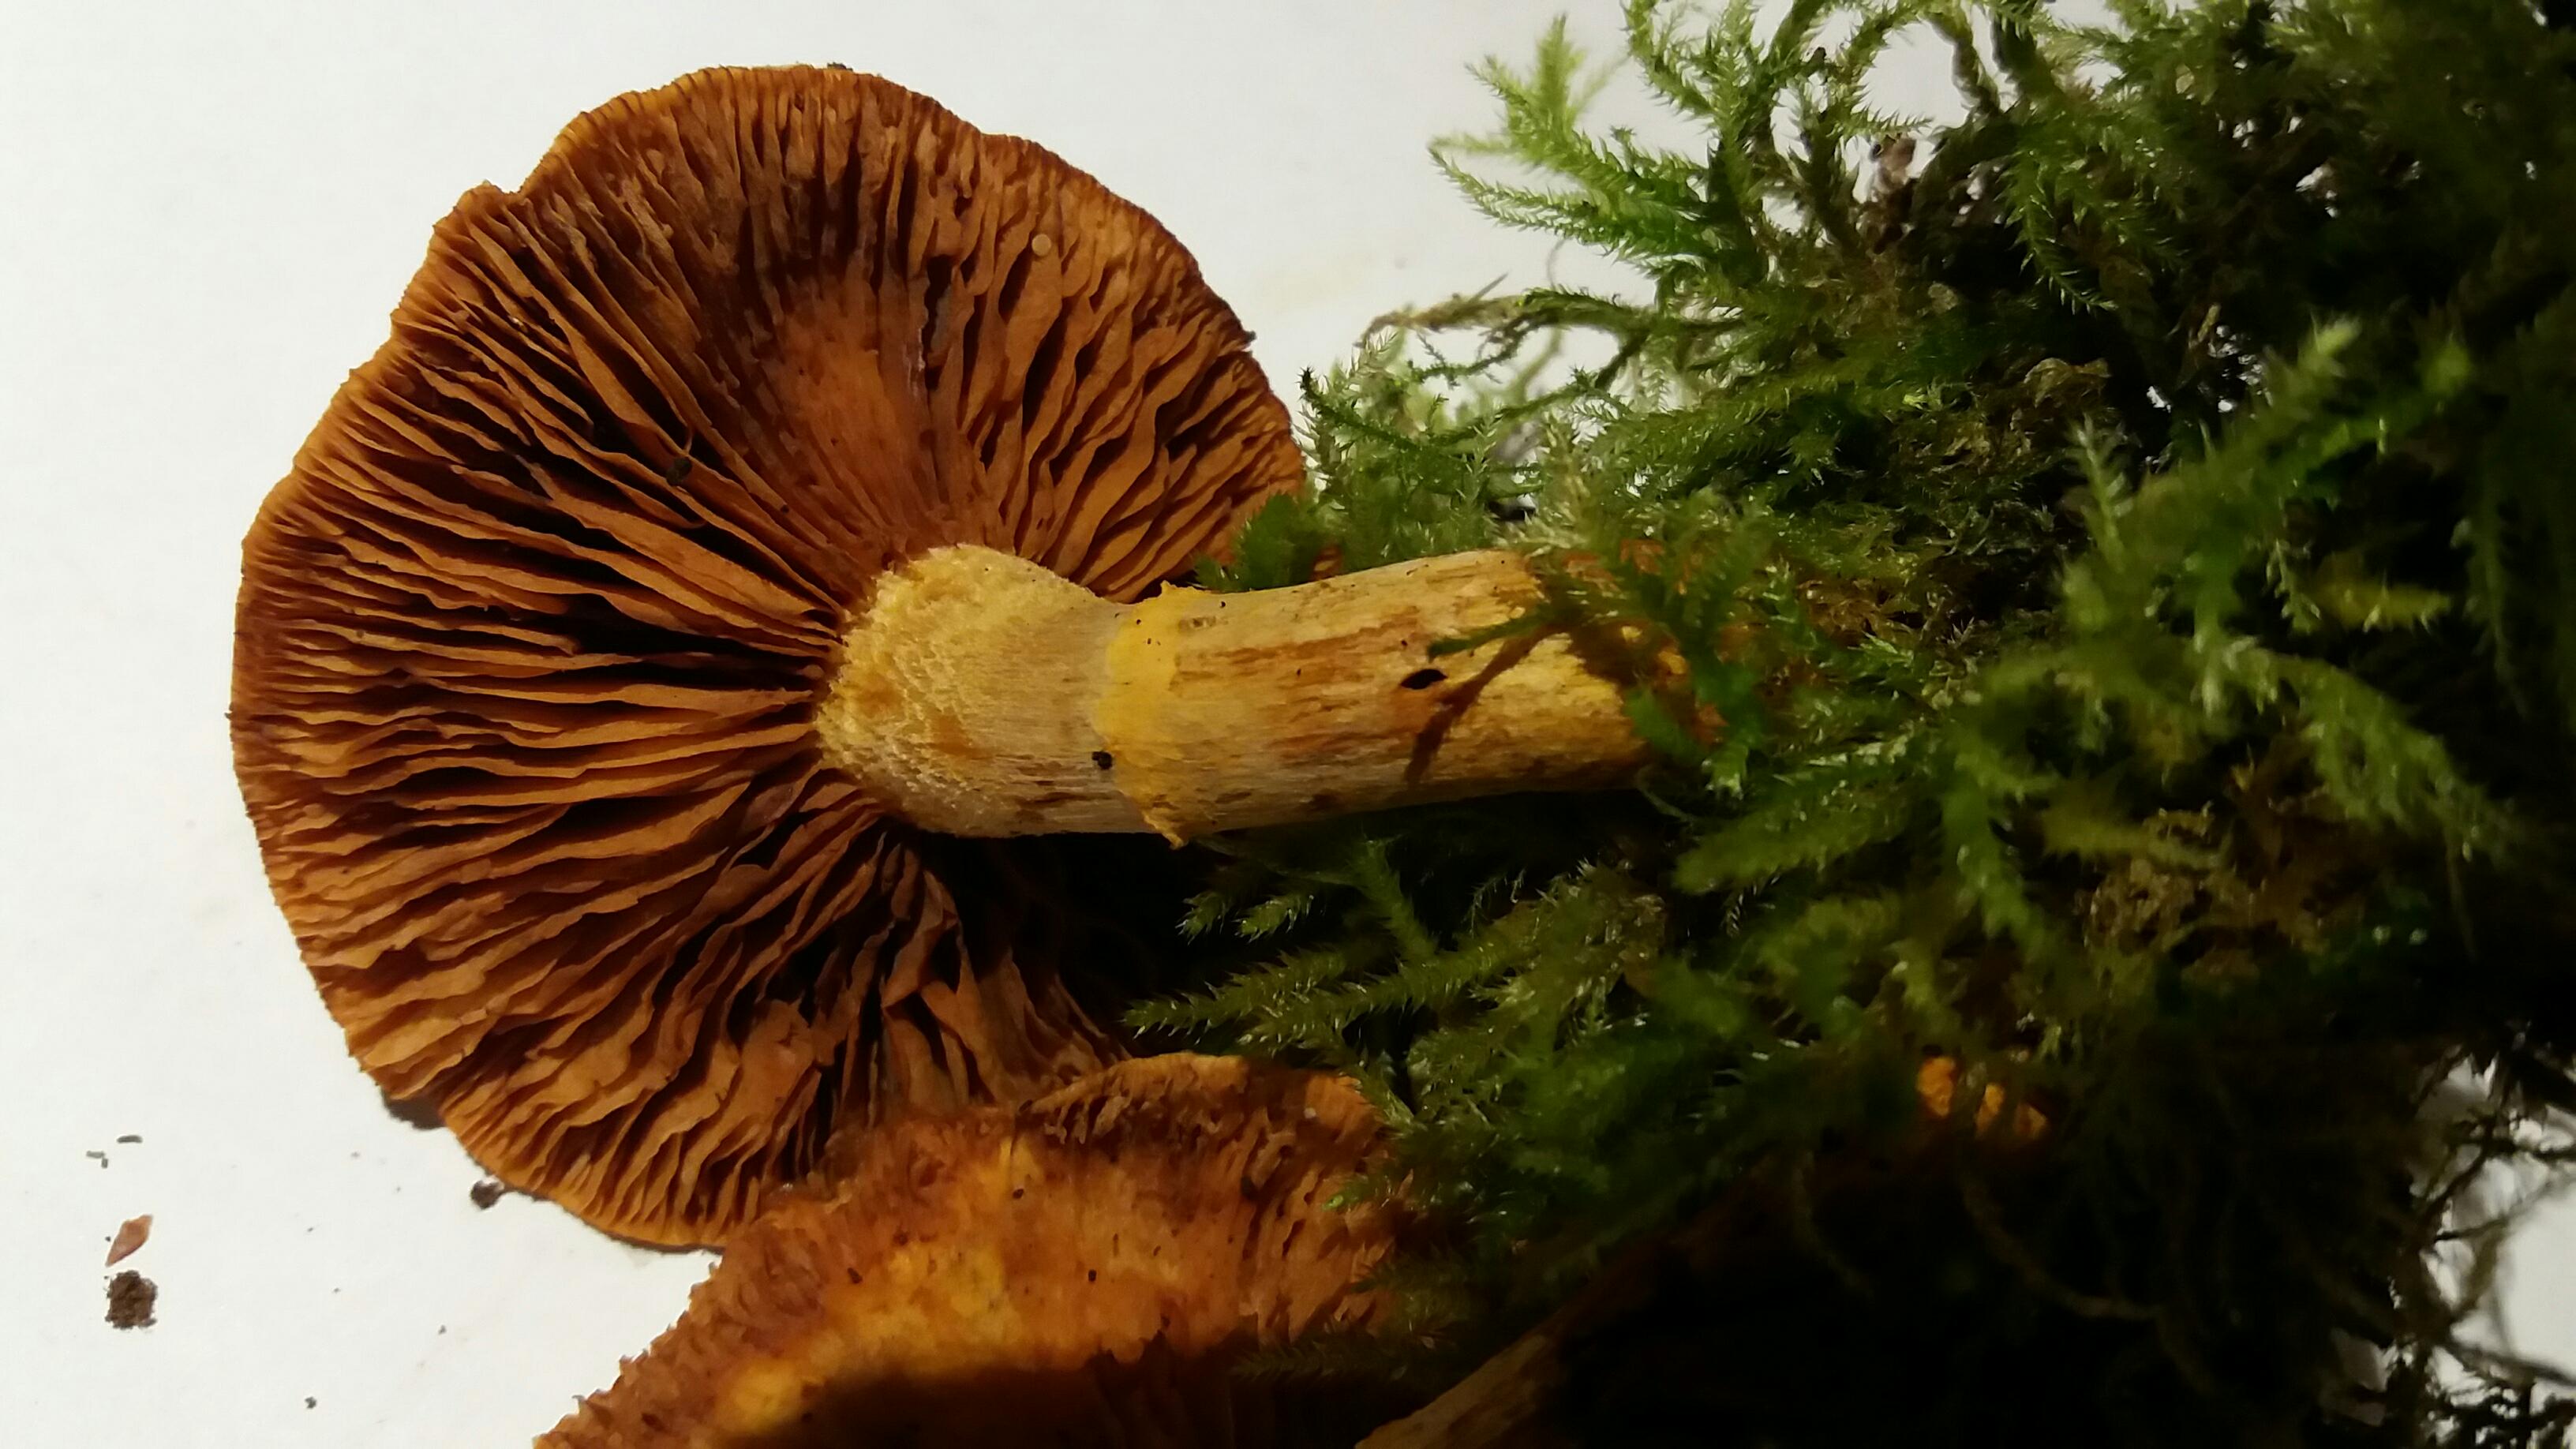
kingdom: Fungi
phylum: Basidiomycota
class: Agaricomycetes
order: Agaricales
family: Hymenogastraceae
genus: Gymnopilus
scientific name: Gymnopilus spectabilis
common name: fibret flammehat
